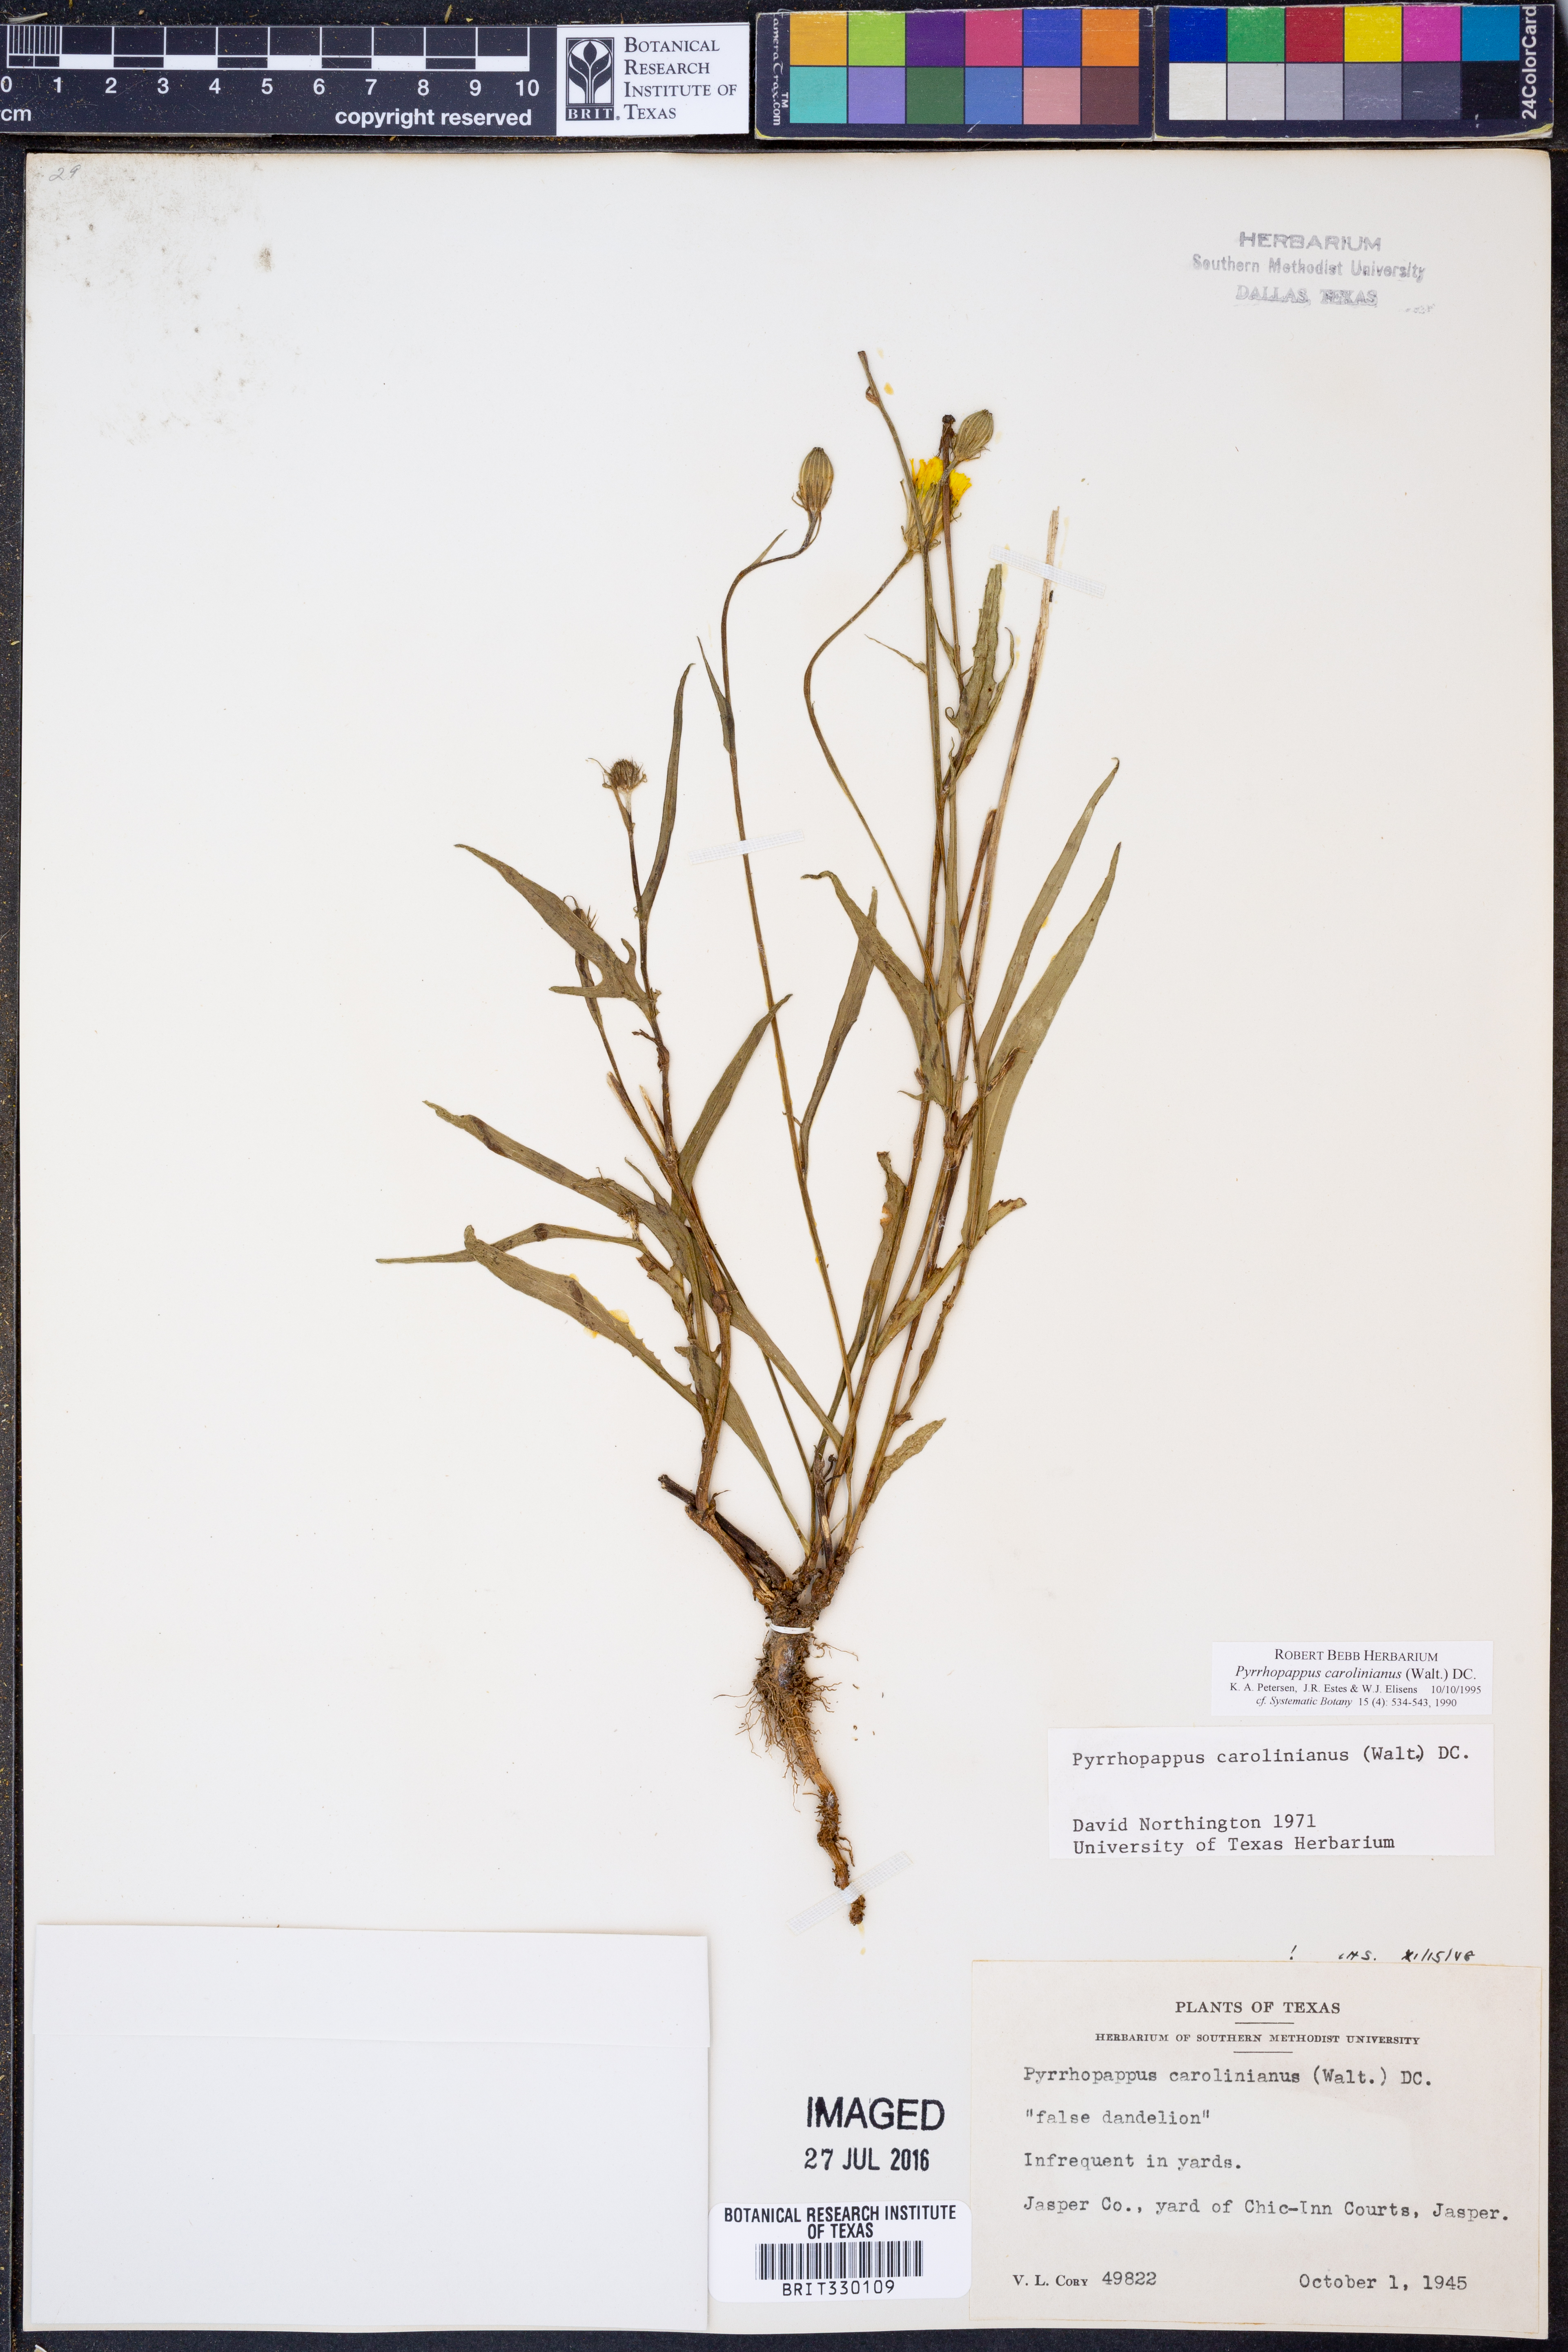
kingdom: Plantae
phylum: Tracheophyta
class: Magnoliopsida
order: Asterales
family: Asteraceae
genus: Pyrrhopappus
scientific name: Pyrrhopappus carolinianus
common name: Carolina desert-chicory
